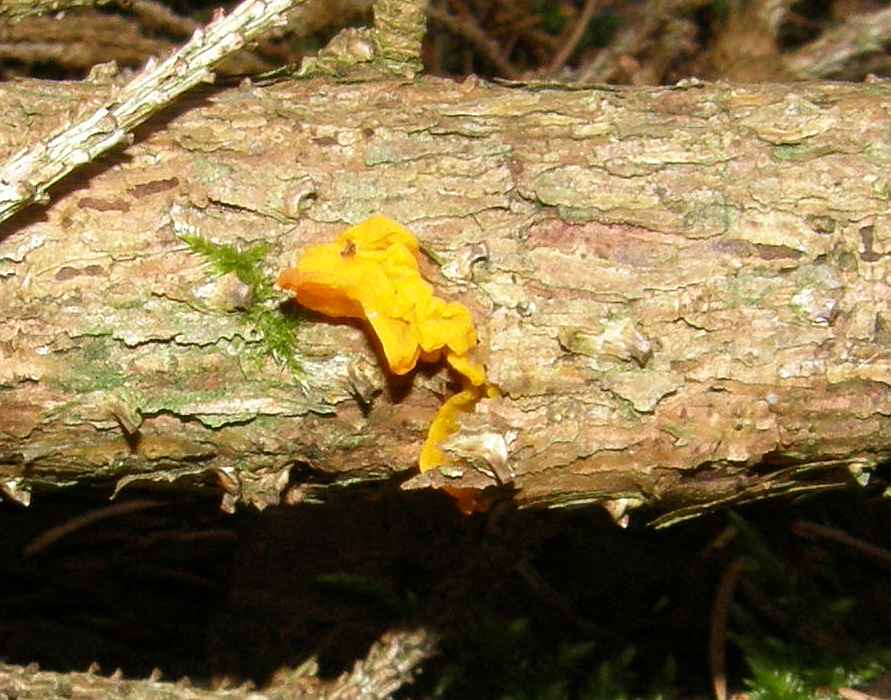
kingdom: Fungi
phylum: Basidiomycota
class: Tremellomycetes
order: Tremellales
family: Tremellaceae
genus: Tremella
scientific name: Tremella mesenterica
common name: gul bævresvamp
